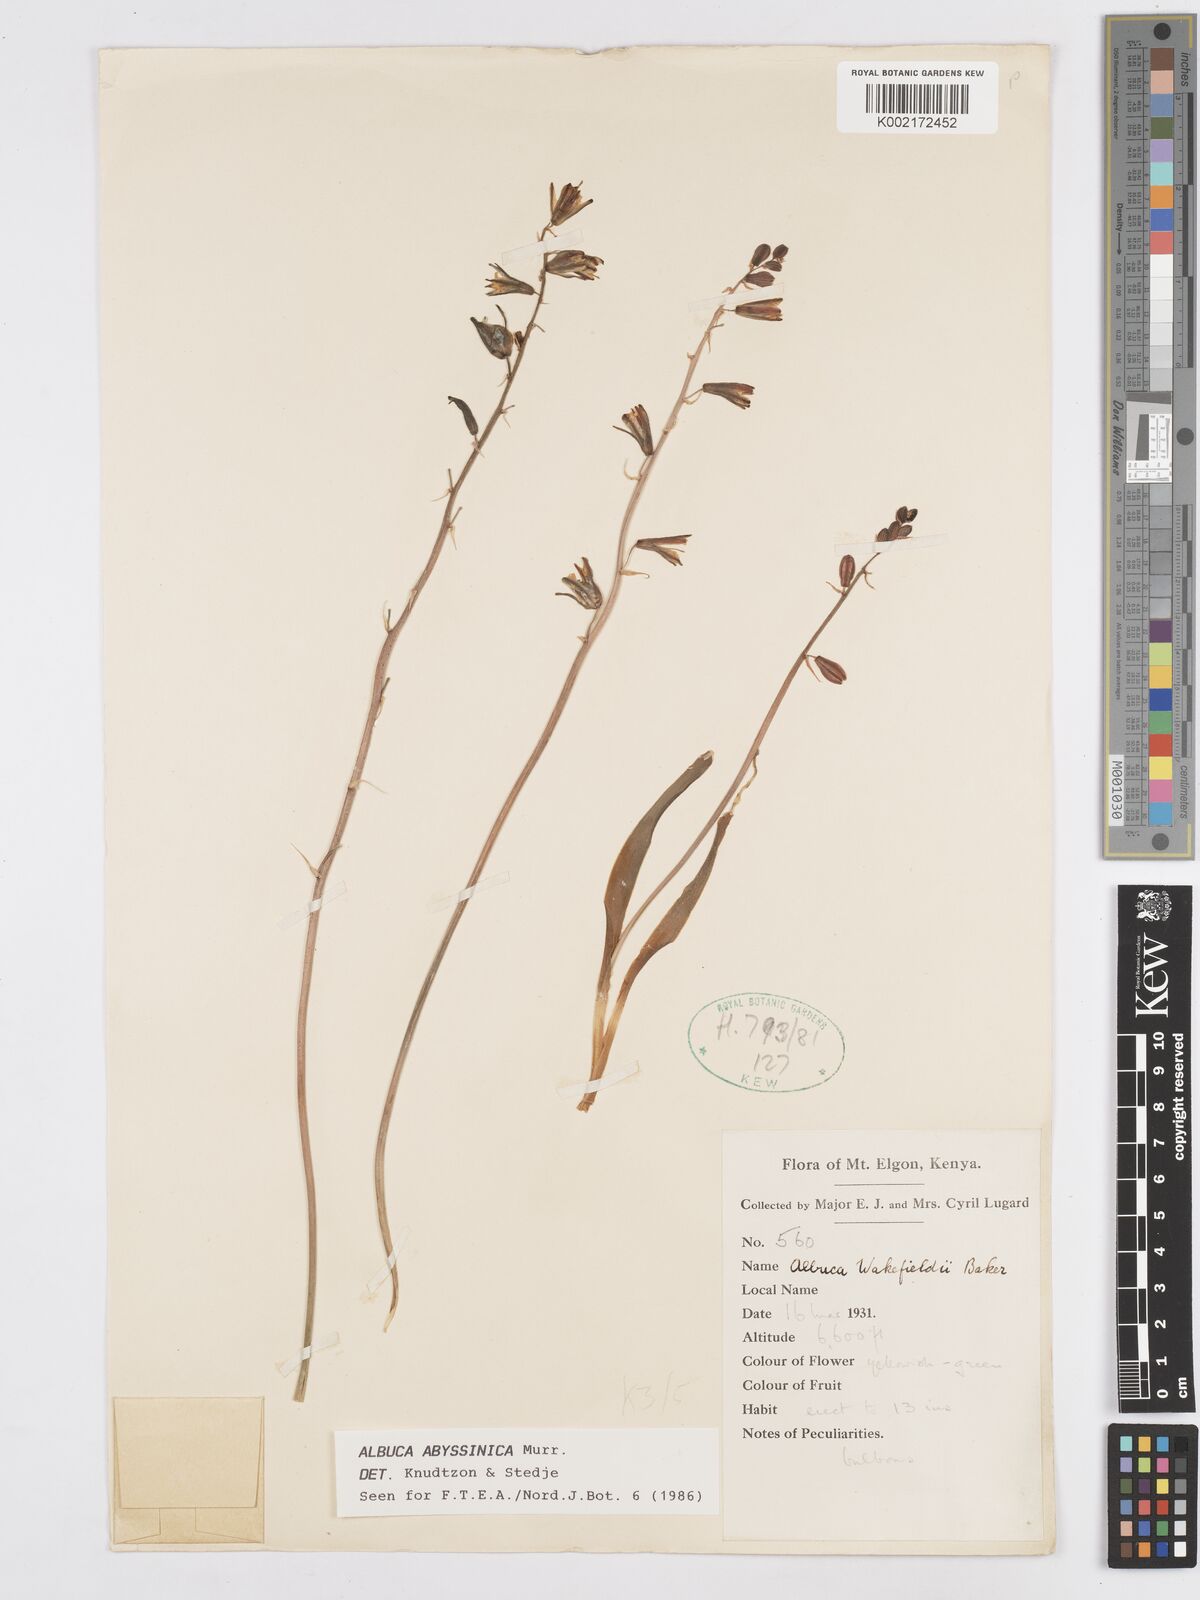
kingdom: Plantae
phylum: Tracheophyta
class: Liliopsida
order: Asparagales
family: Asparagaceae
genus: Albuca
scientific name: Albuca abyssinica
